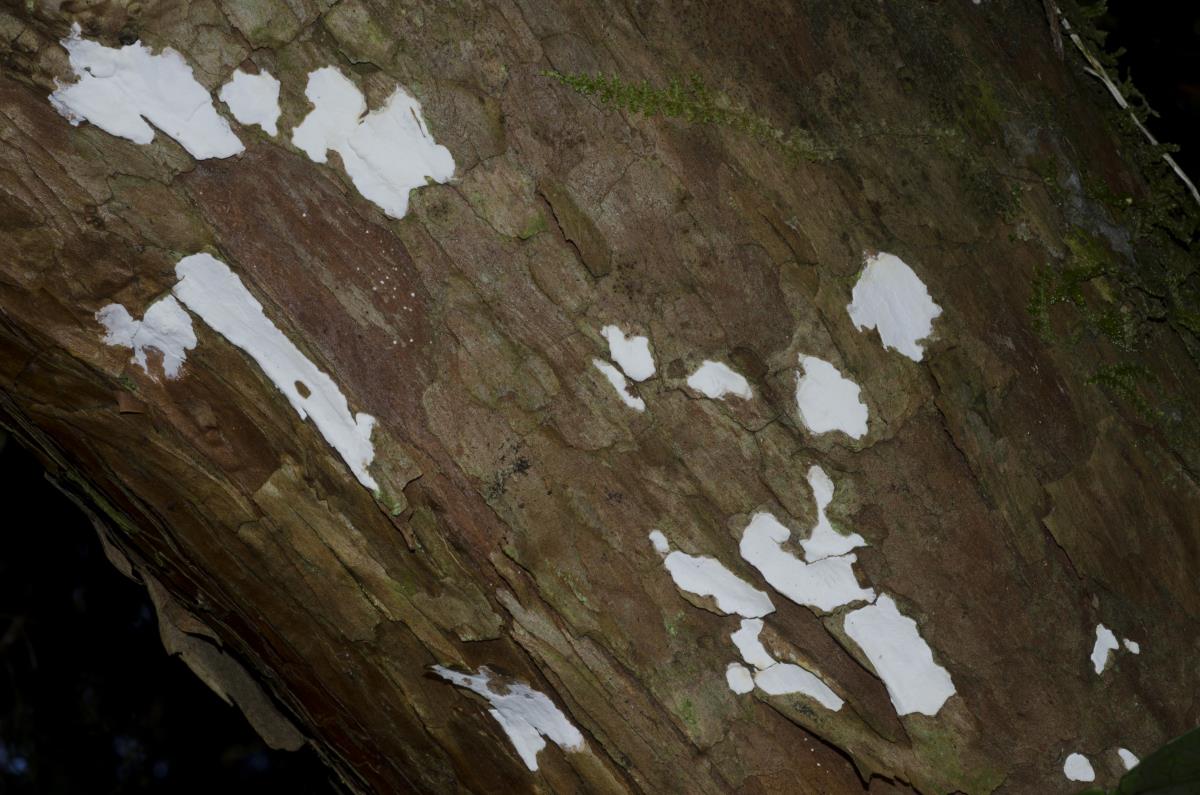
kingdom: Fungi
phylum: Basidiomycota
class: Agaricomycetes
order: Polyporales
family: Dacryobolaceae
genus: Dacryobolus
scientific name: Dacryobolus
